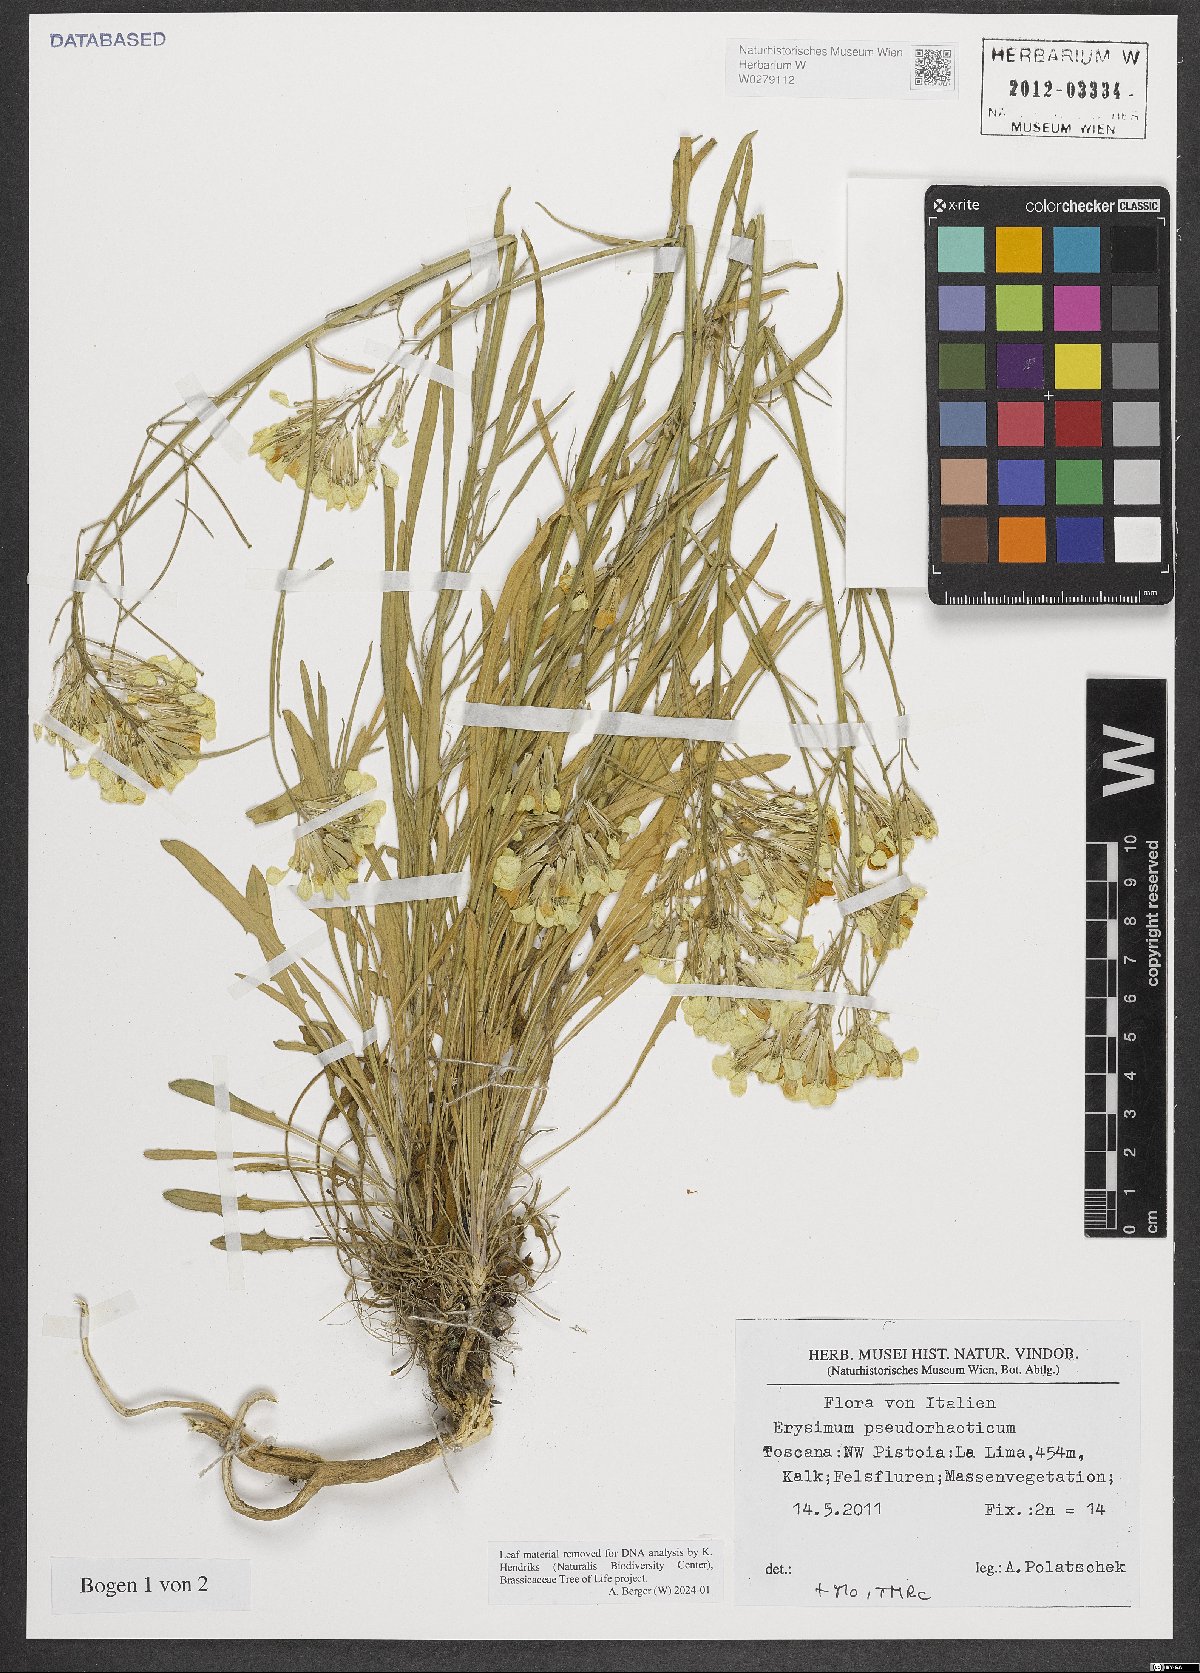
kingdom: Plantae
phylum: Tracheophyta
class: Magnoliopsida
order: Brassicales
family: Brassicaceae
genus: Erysimum
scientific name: Erysimum pseudorhaeticum
